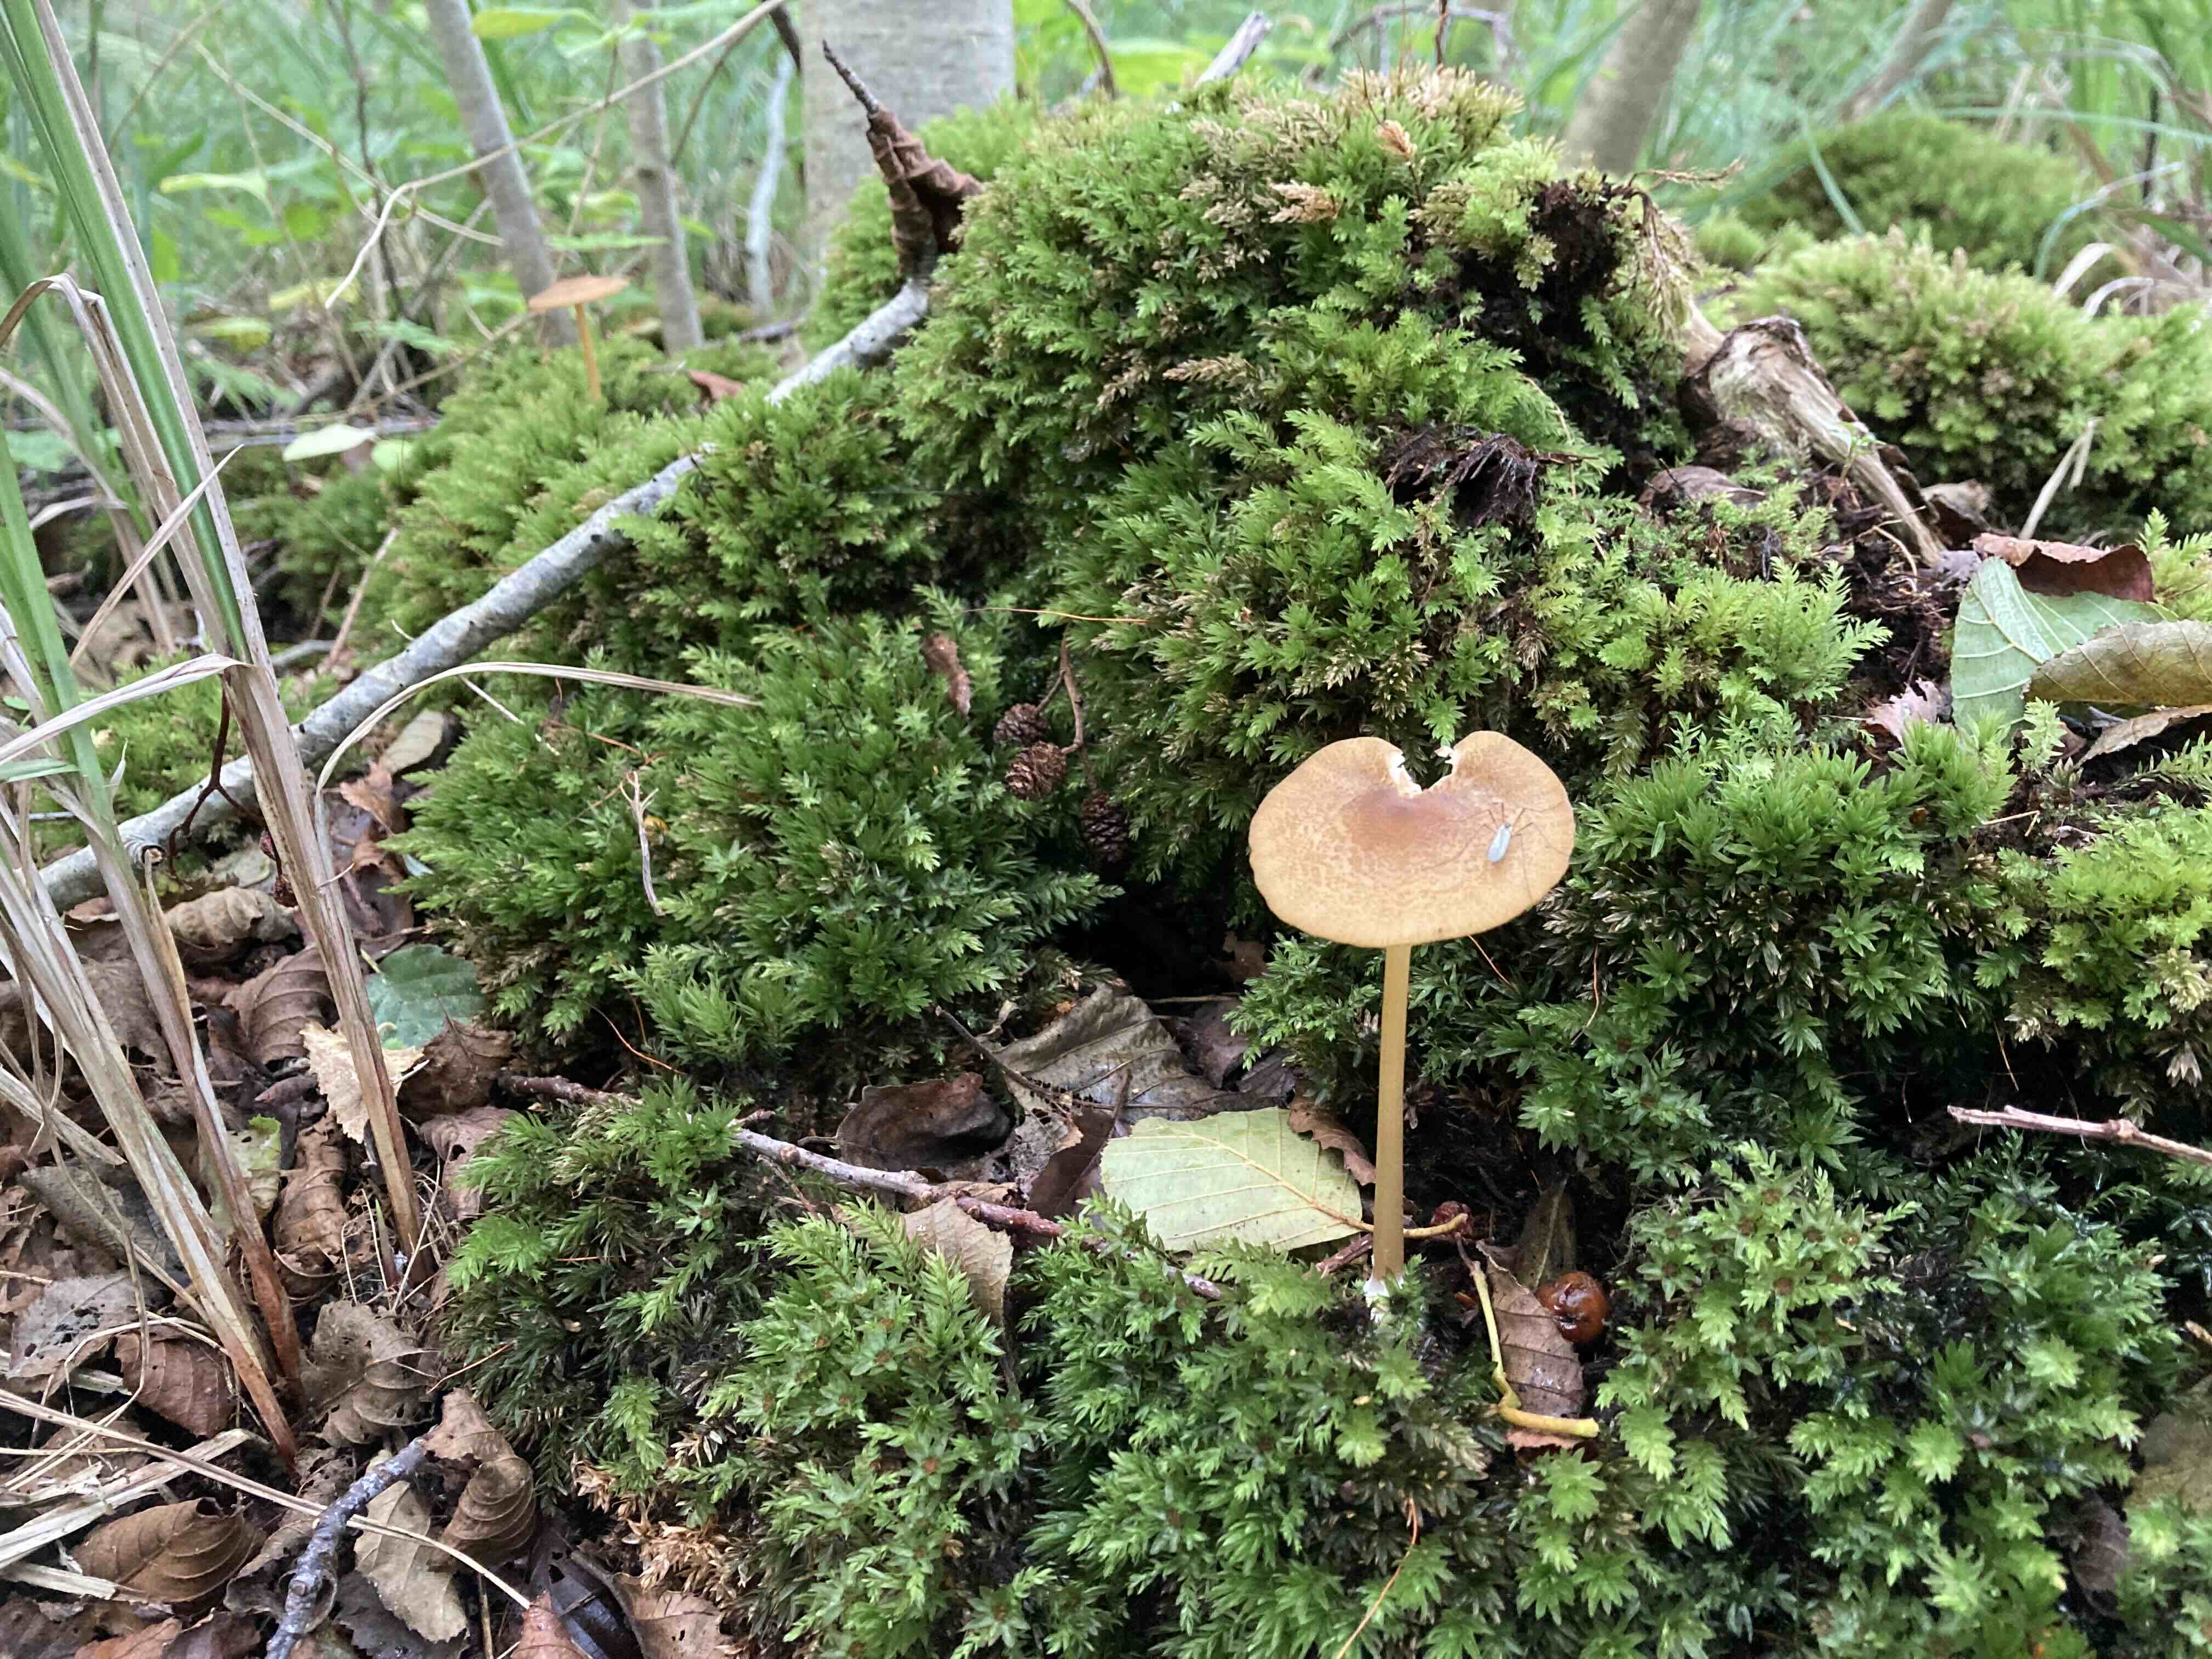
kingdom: Fungi
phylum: Basidiomycota
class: Agaricomycetes
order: Agaricales
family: Entolomataceae
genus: Entoloma
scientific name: Entoloma formosum
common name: brungul rødblad
